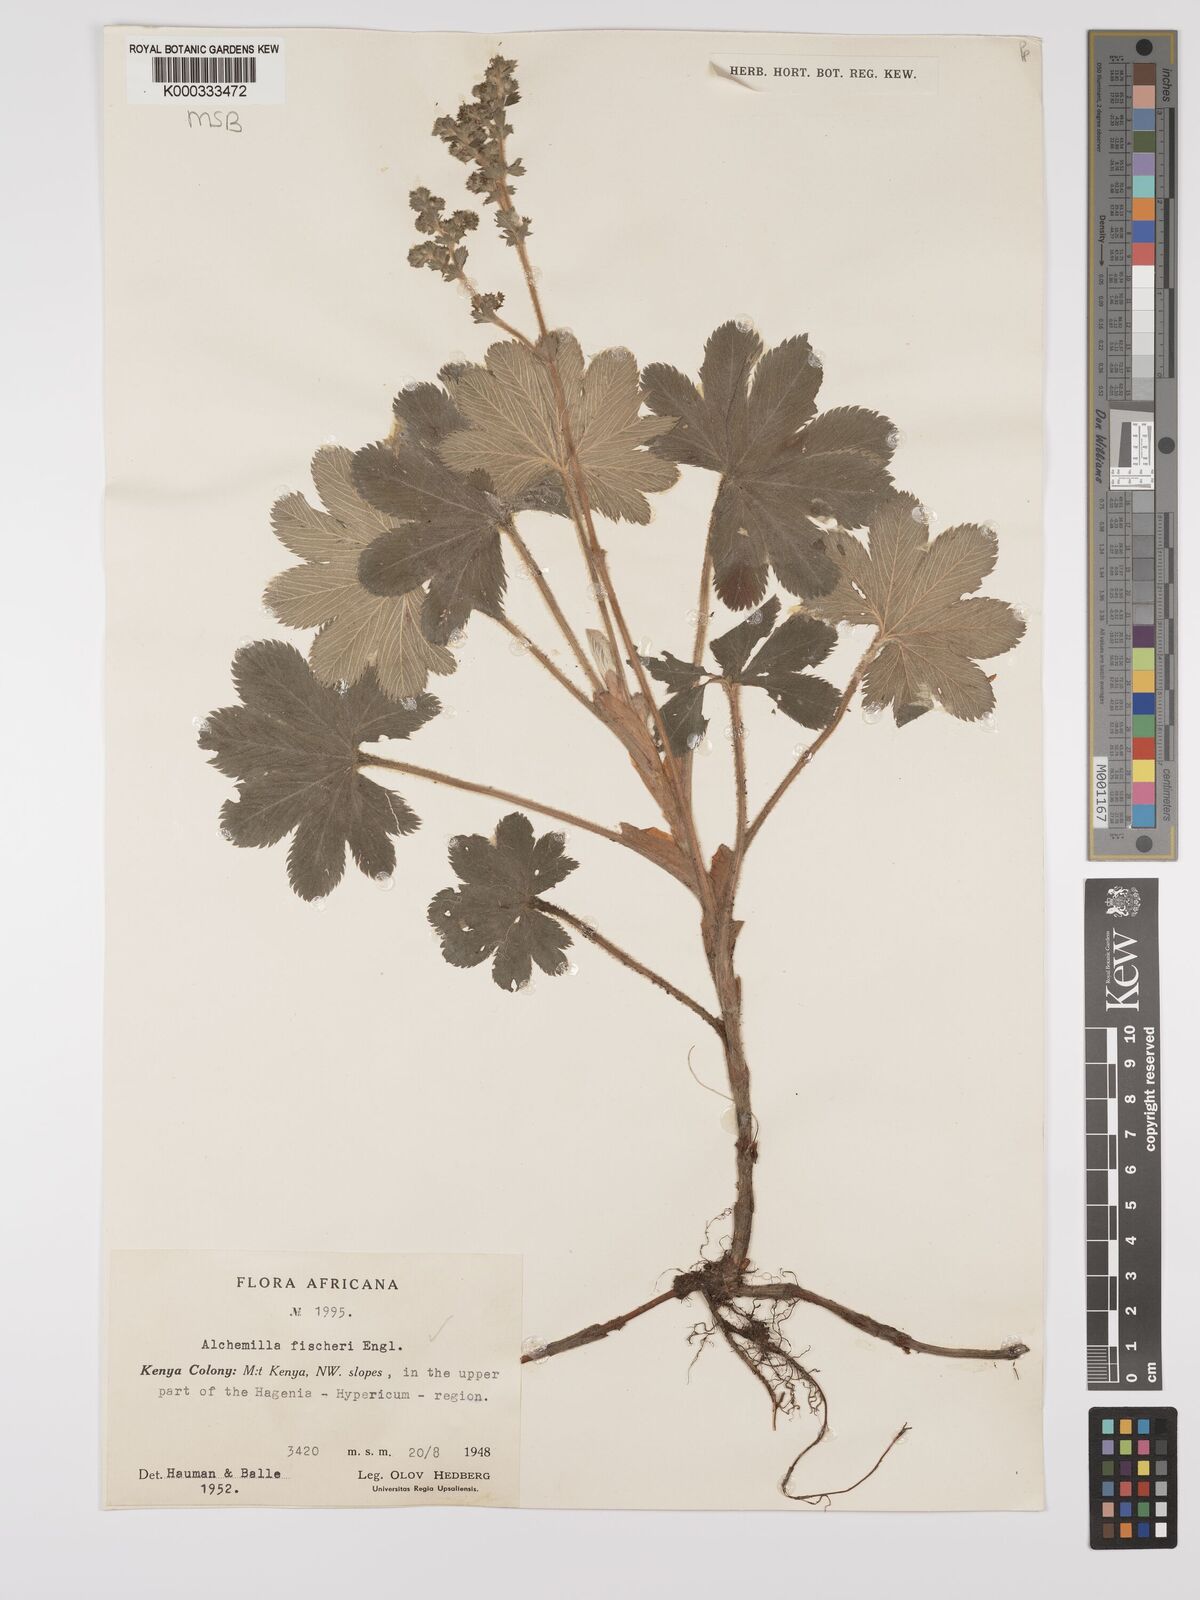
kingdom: Plantae
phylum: Tracheophyta
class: Magnoliopsida
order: Rosales
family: Rosaceae
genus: Alchemilla
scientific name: Alchemilla fischeri
